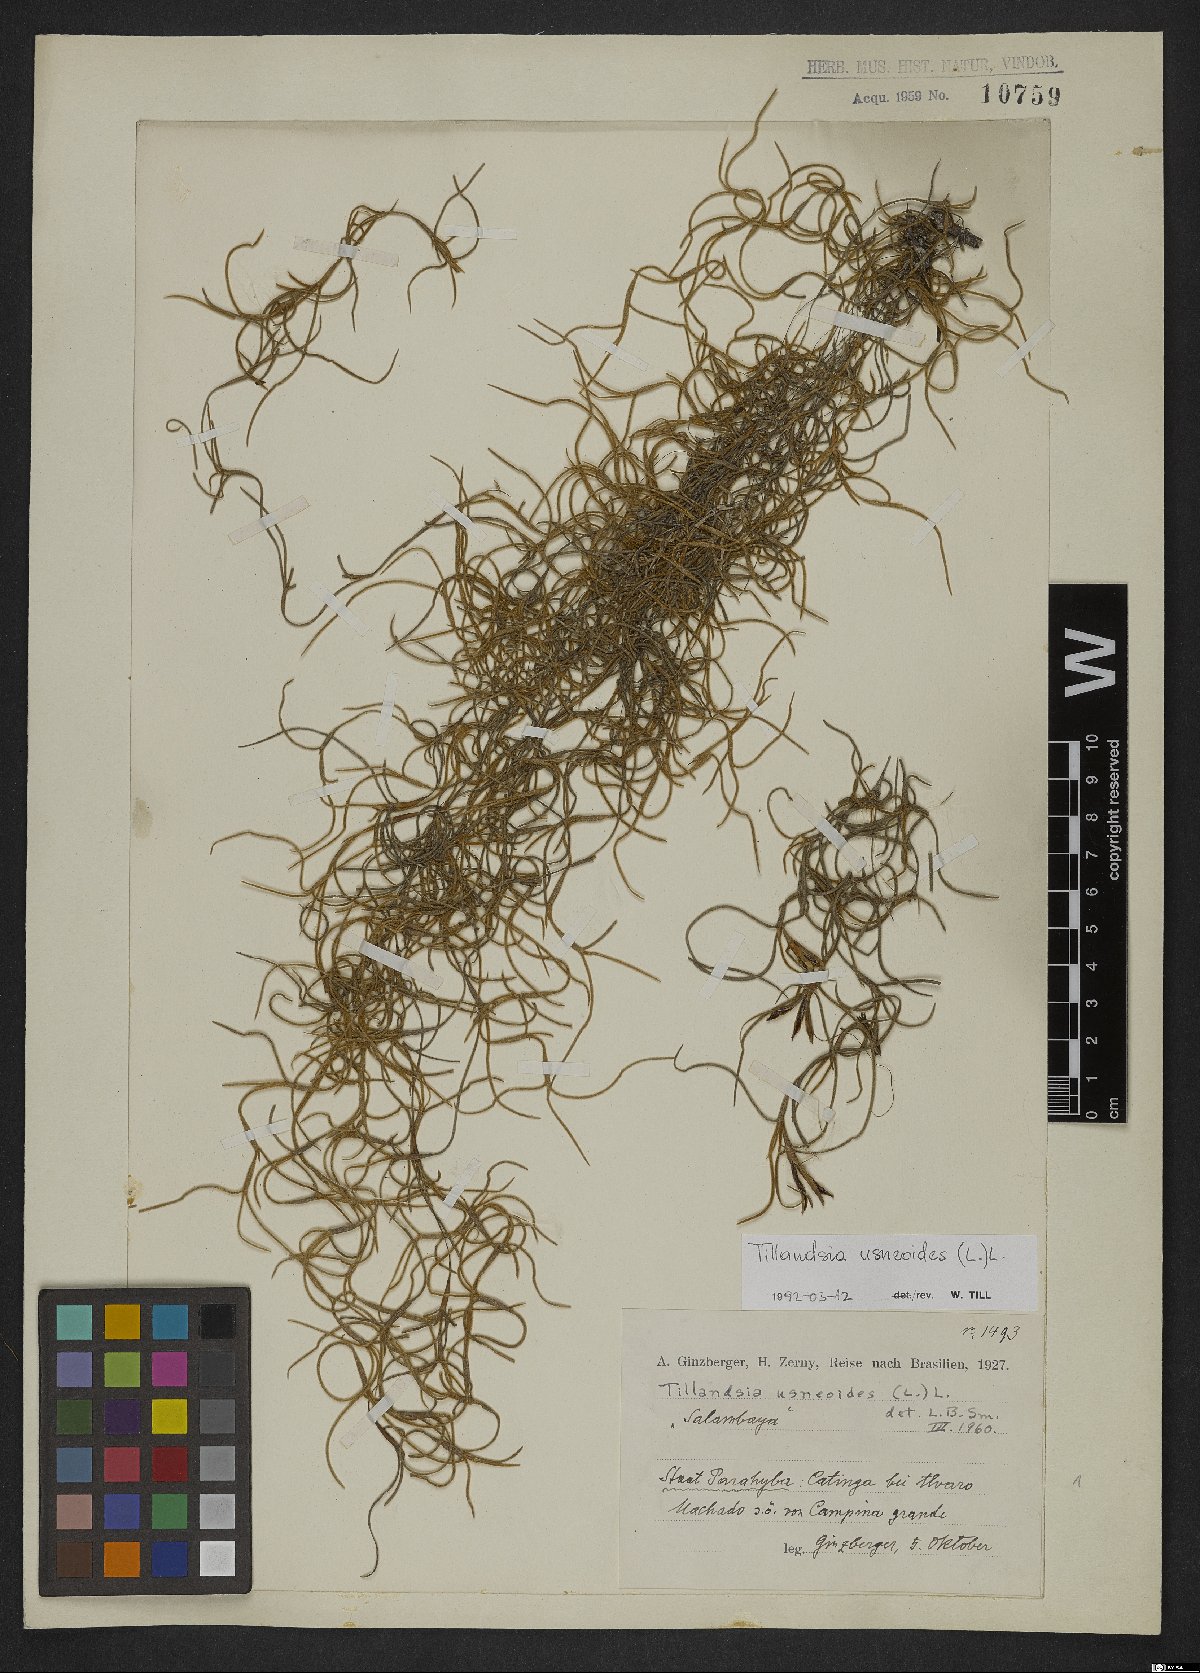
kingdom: Plantae
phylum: Tracheophyta
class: Liliopsida
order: Poales
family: Bromeliaceae
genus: Tillandsia
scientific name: Tillandsia usneoides
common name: Spanish moss
